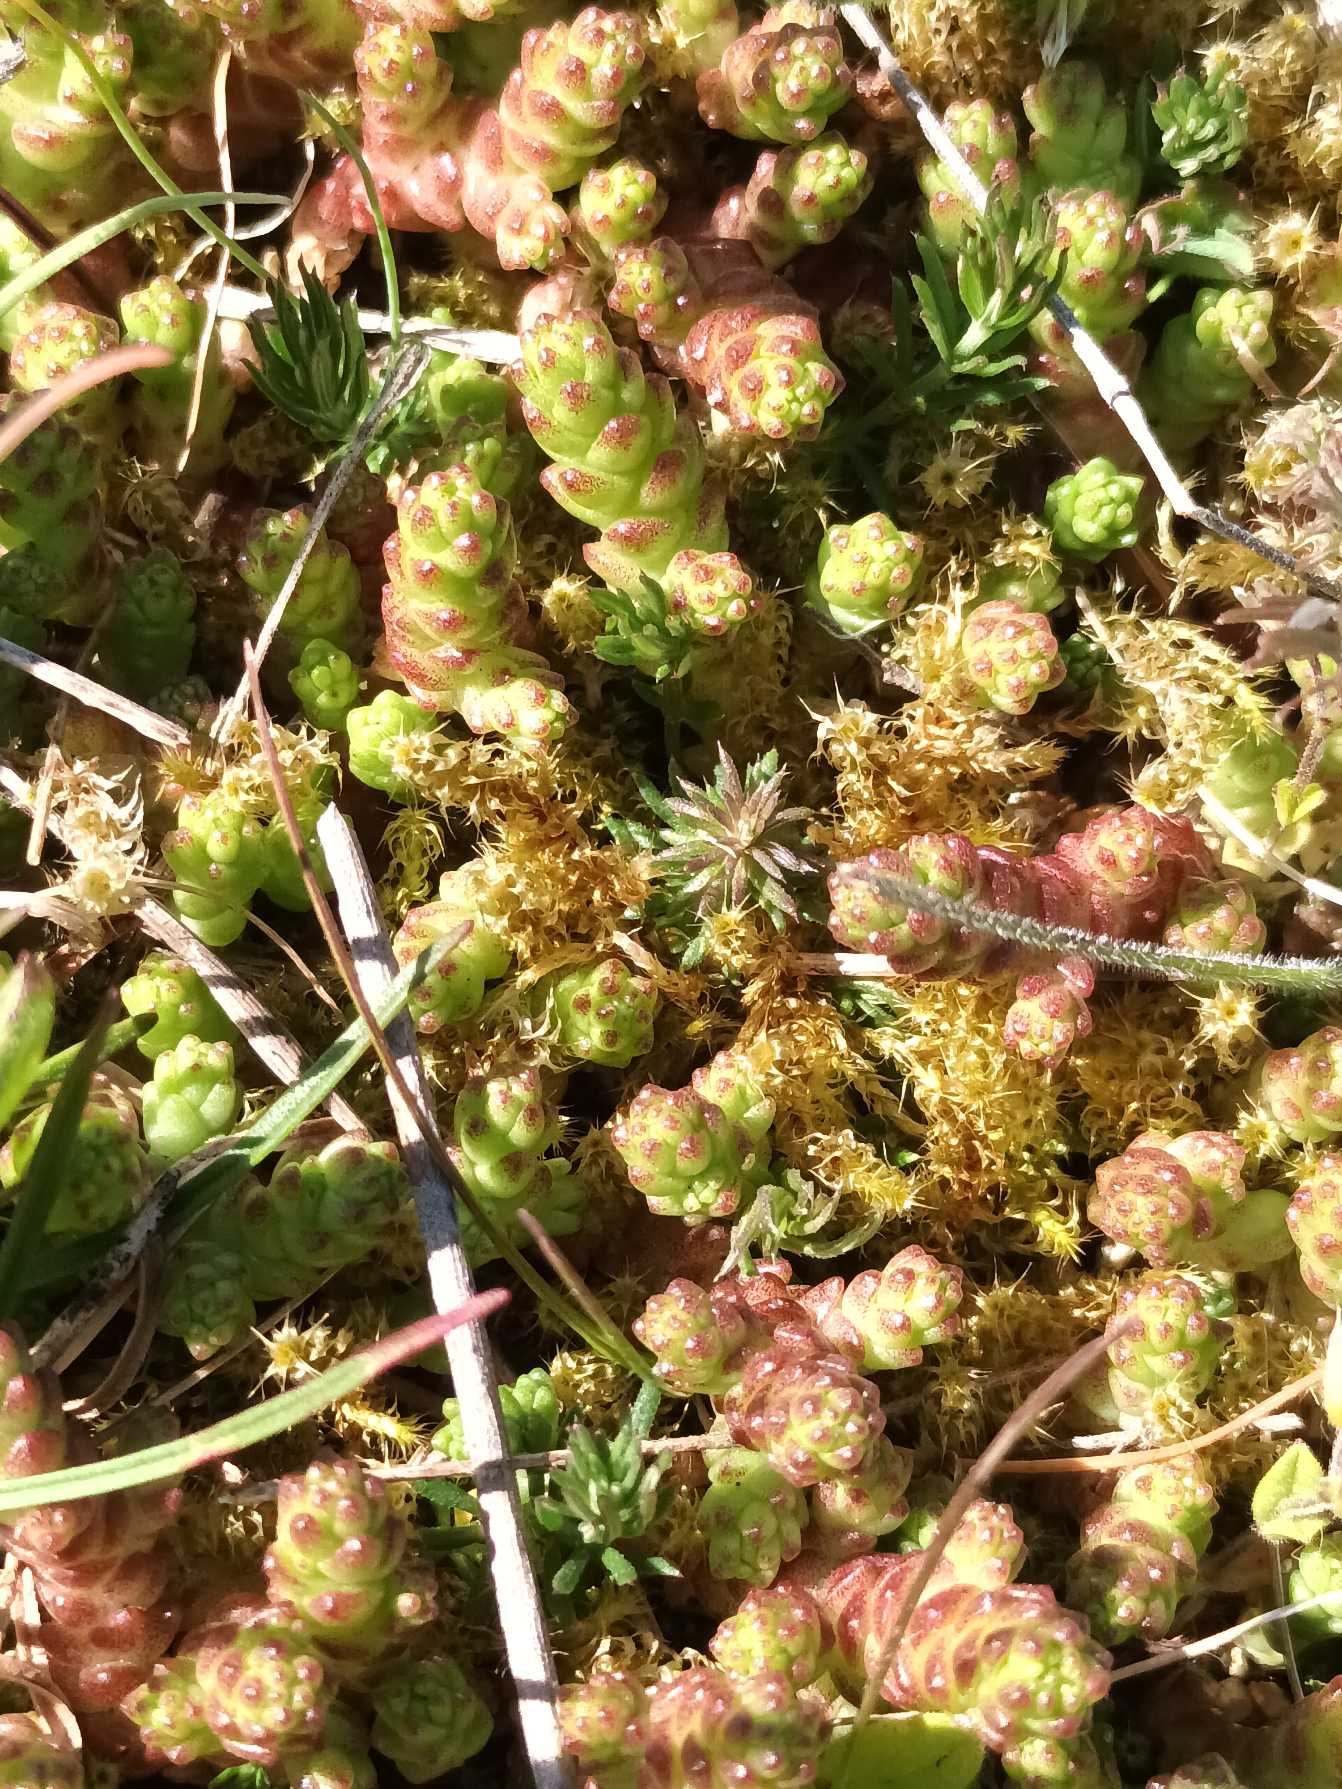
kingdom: Plantae
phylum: Tracheophyta
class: Magnoliopsida
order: Saxifragales
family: Crassulaceae
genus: Sedum
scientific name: Sedum acre
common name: Bidende stenurt
